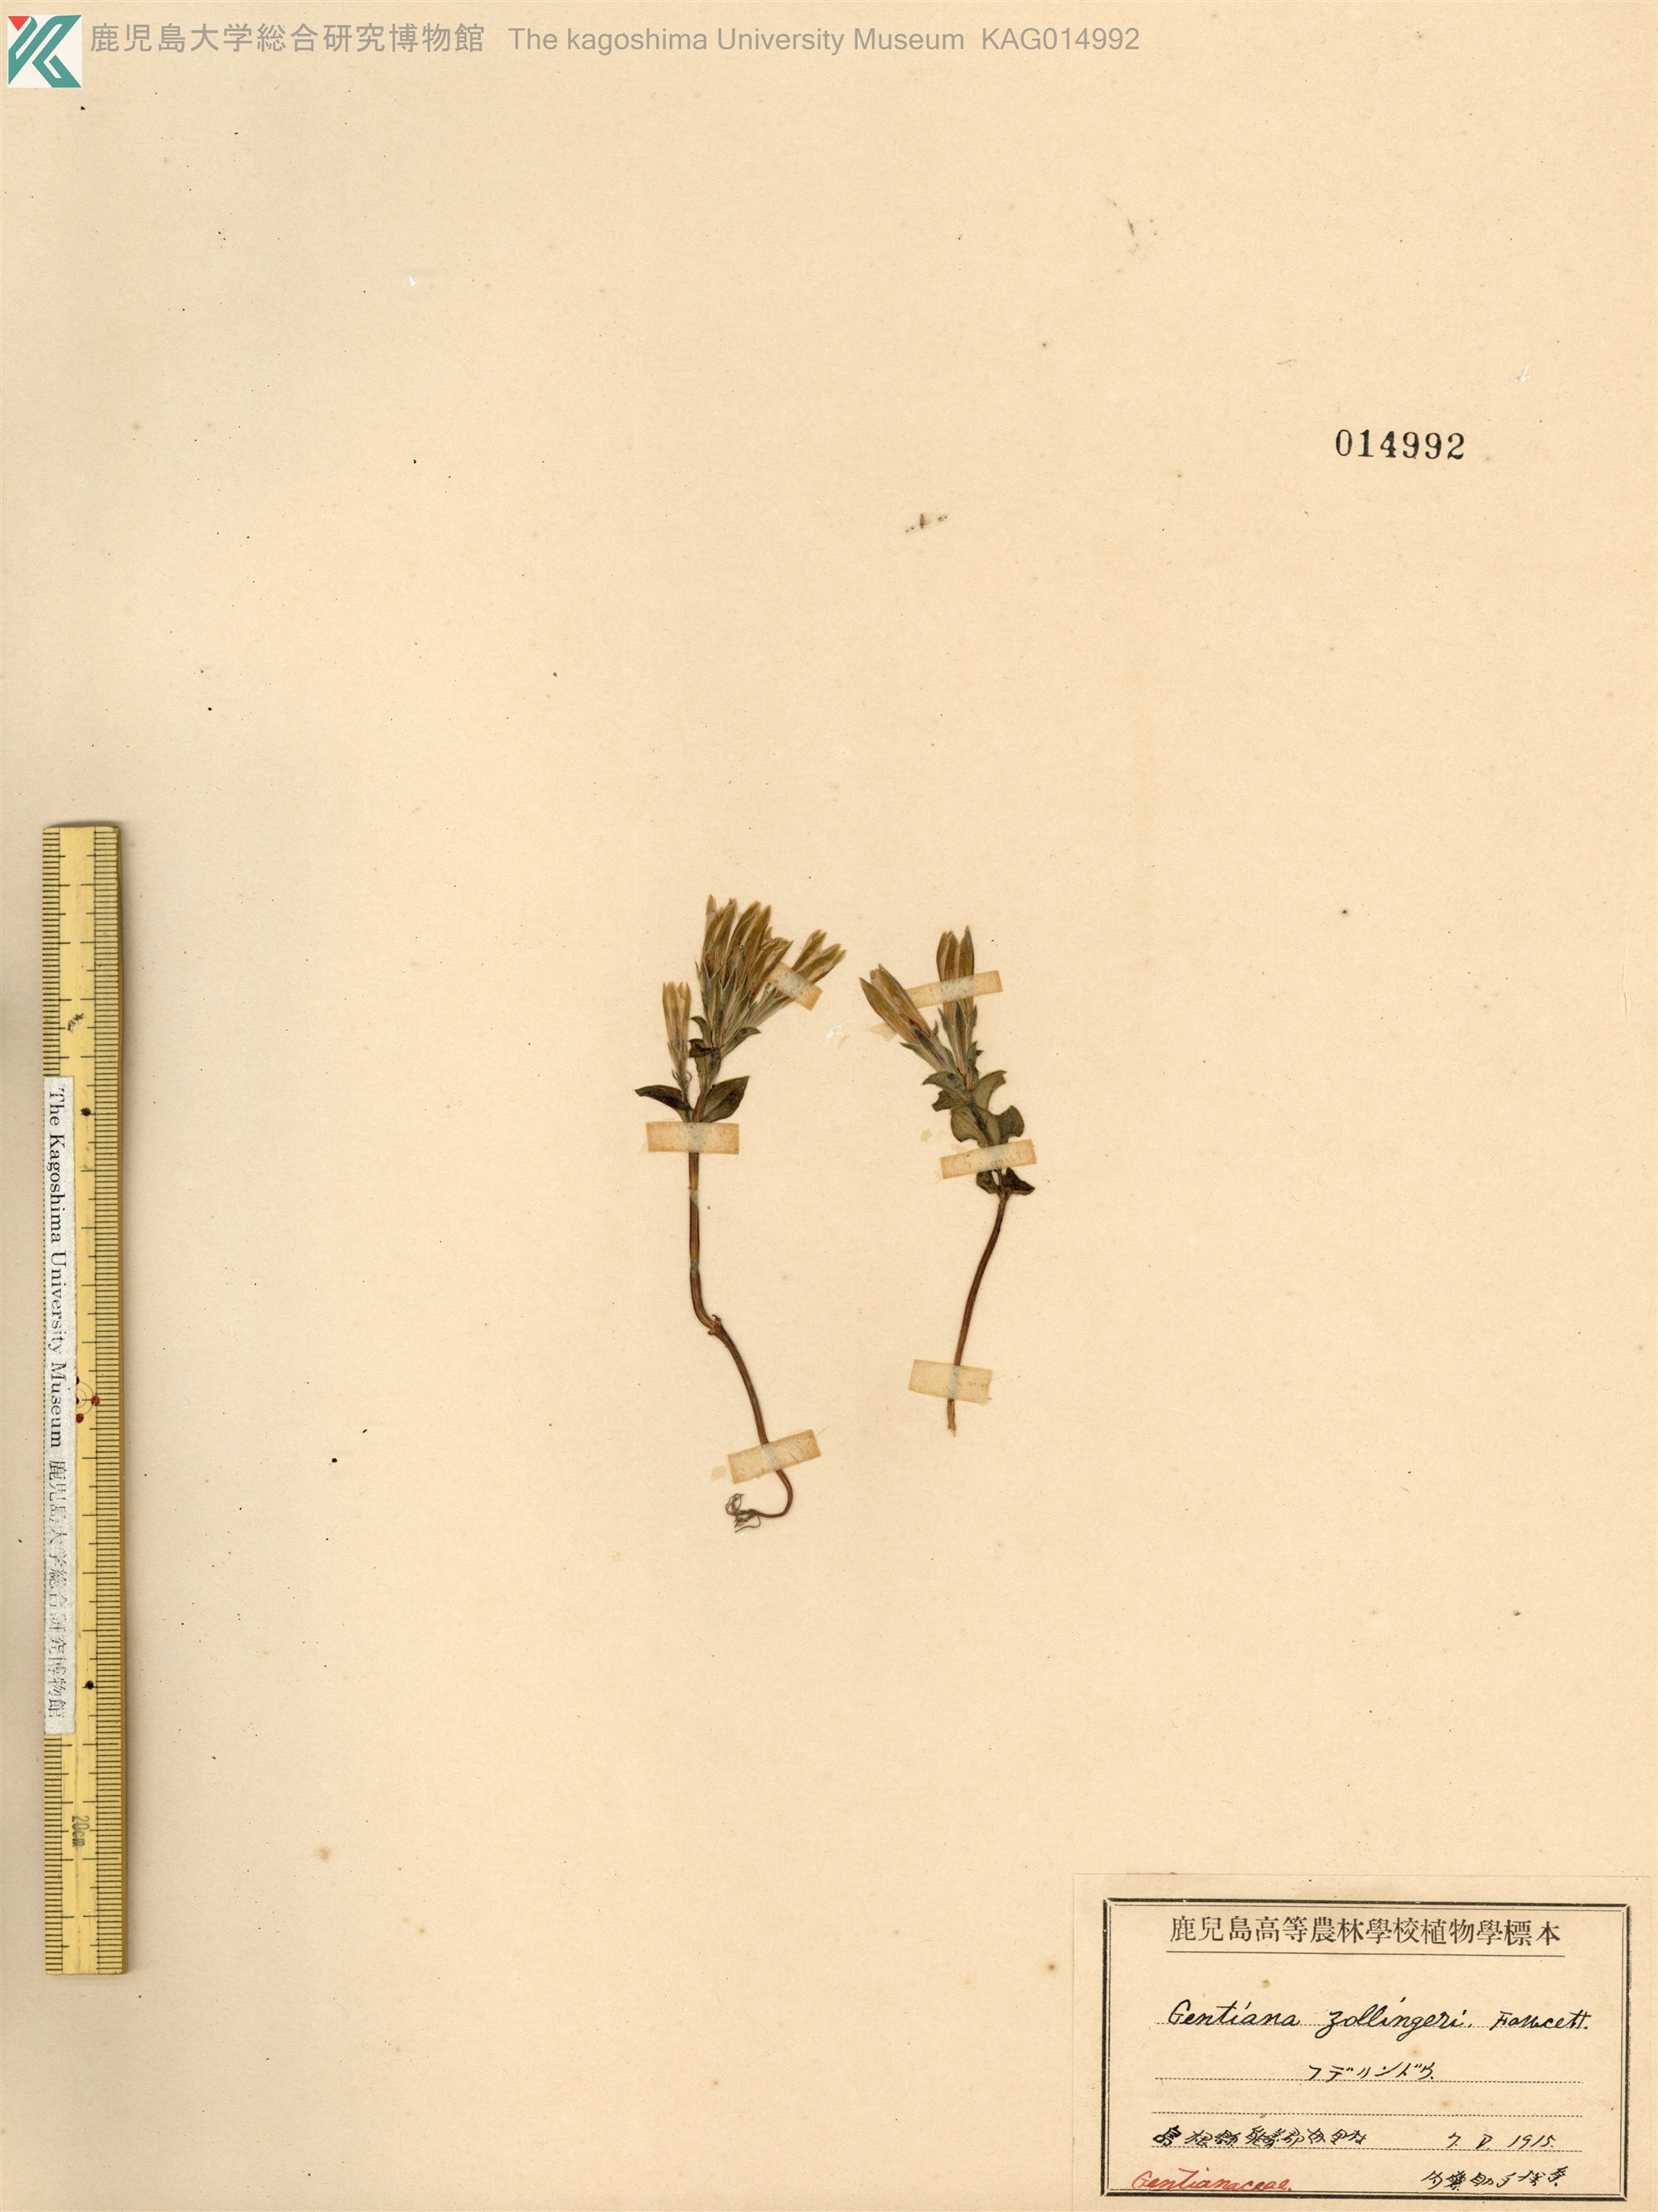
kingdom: Plantae
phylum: Tracheophyta
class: Magnoliopsida
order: Gentianales
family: Gentianaceae
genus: Gentiana
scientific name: Gentiana zollingeri
